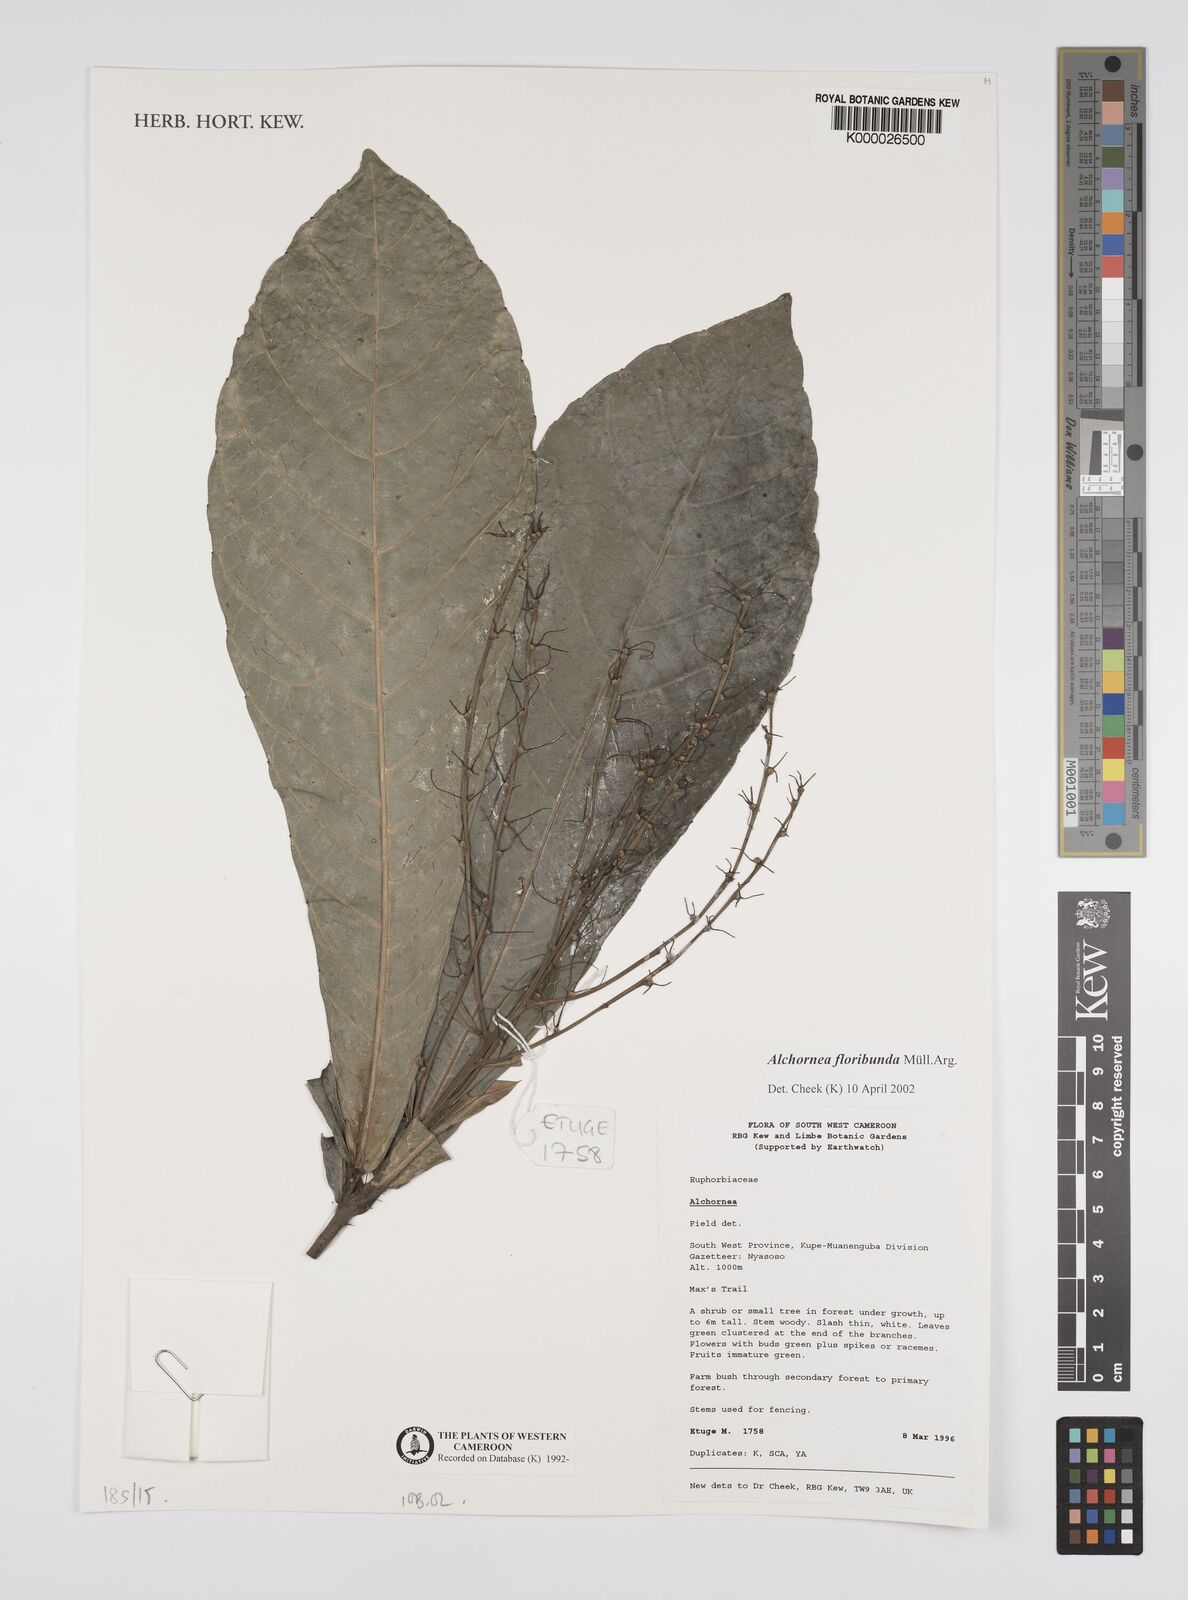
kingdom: Plantae
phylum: Tracheophyta
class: Magnoliopsida
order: Malpighiales
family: Euphorbiaceae
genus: Alchornea
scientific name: Alchornea
